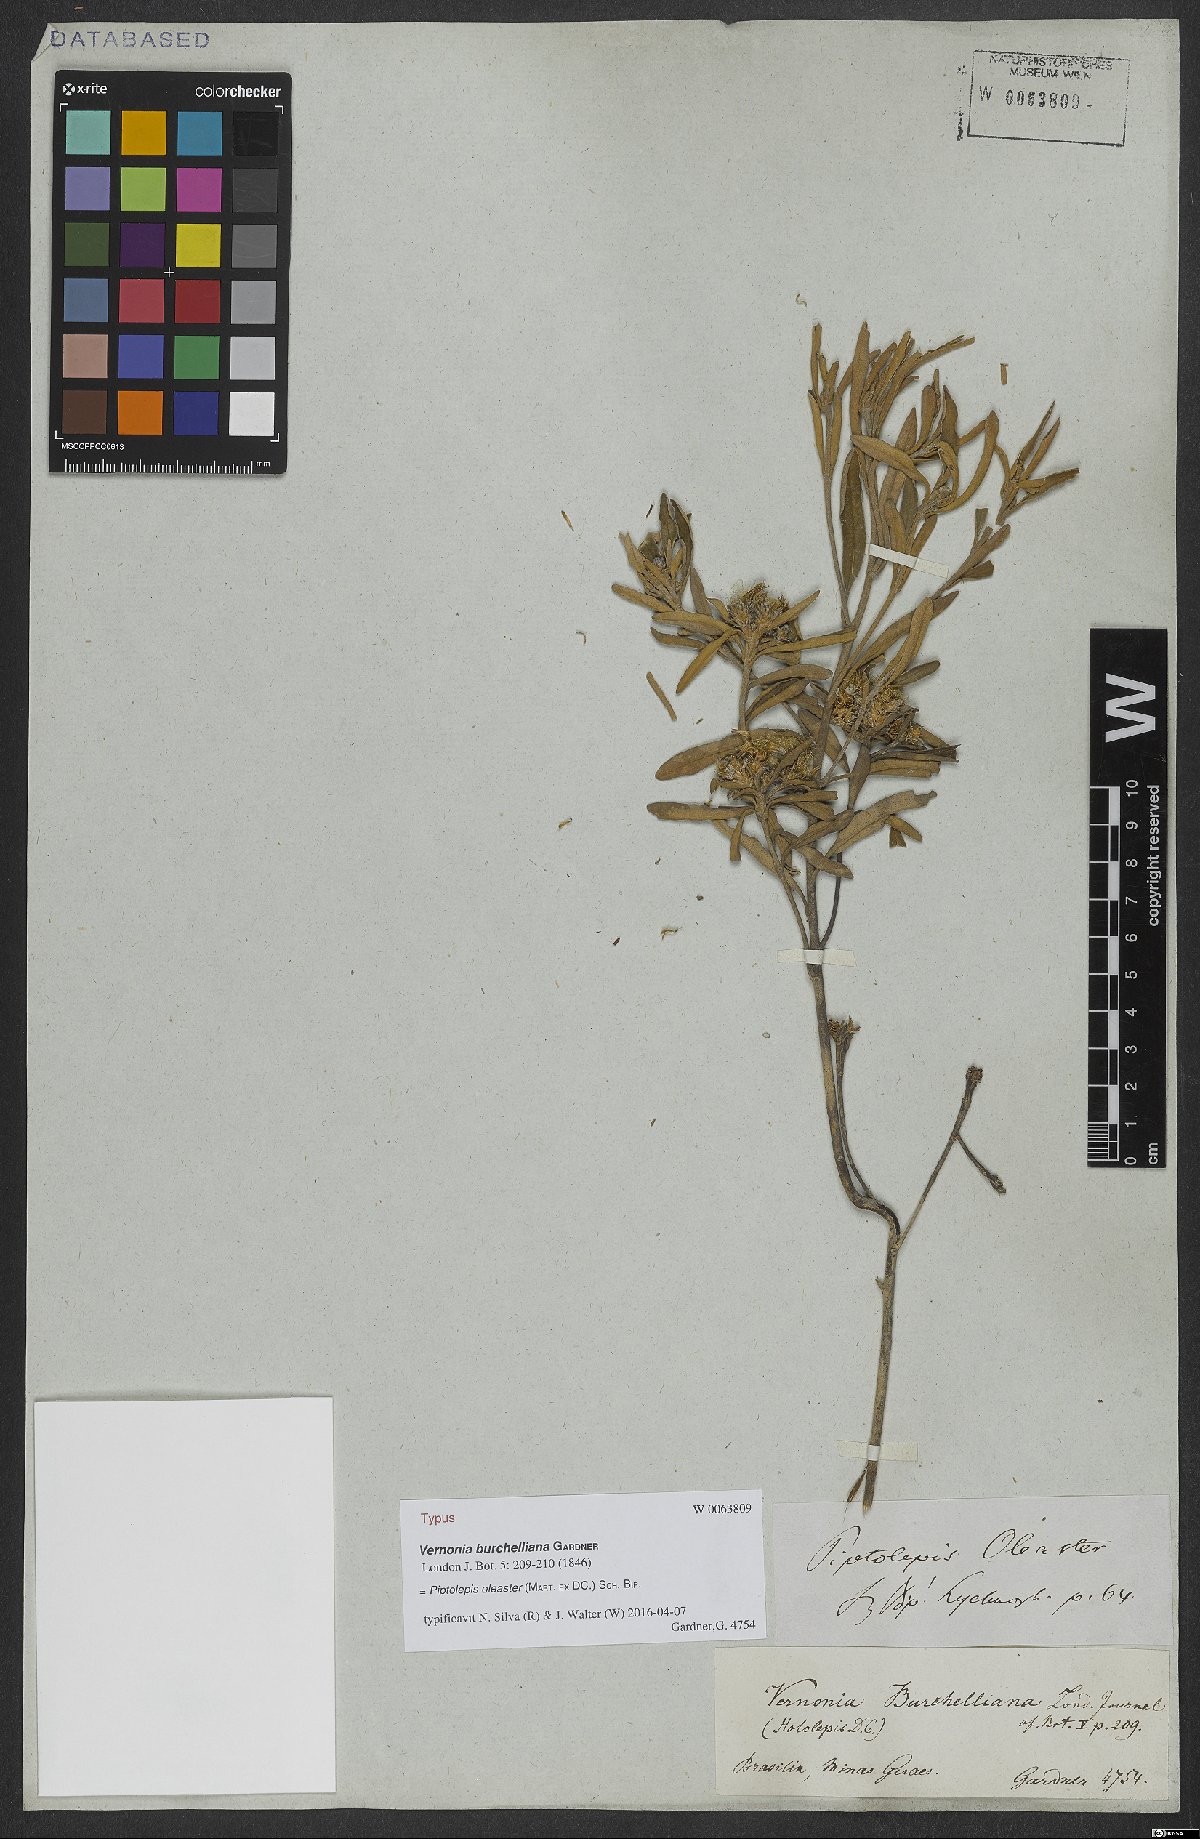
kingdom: Plantae
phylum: Tracheophyta
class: Magnoliopsida
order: Asterales
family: Asteraceae
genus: Piptolepis
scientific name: Piptolepis oleaster
